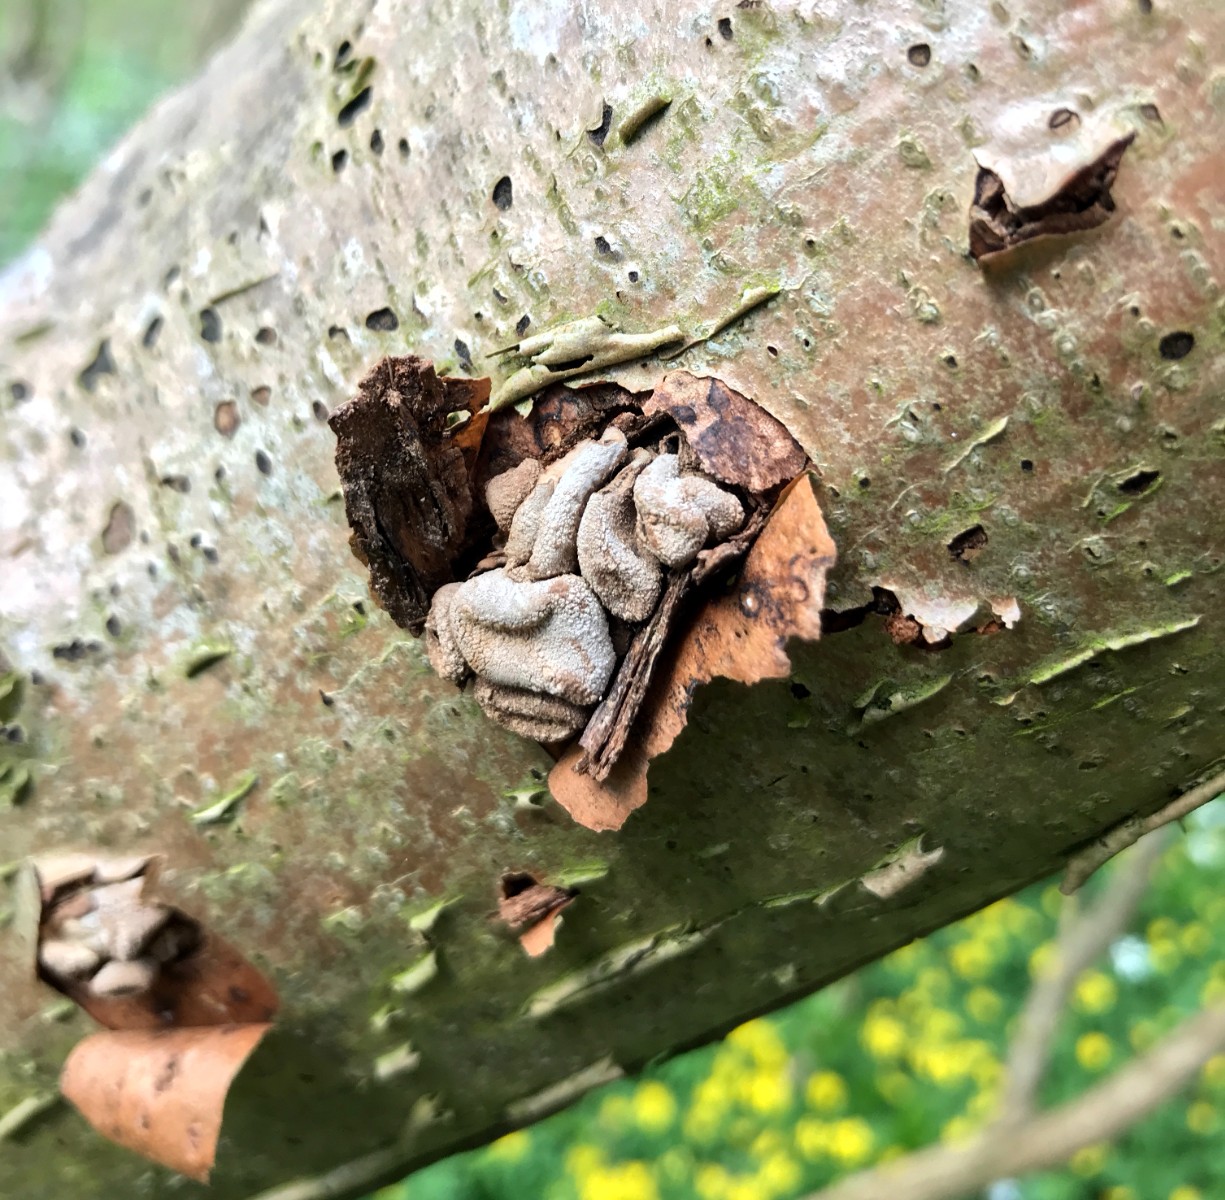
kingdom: Fungi
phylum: Ascomycota
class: Leotiomycetes
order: Helotiales
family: Cenangiaceae
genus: Encoelia
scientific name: Encoelia furfuracea
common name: hassel-læderskive
